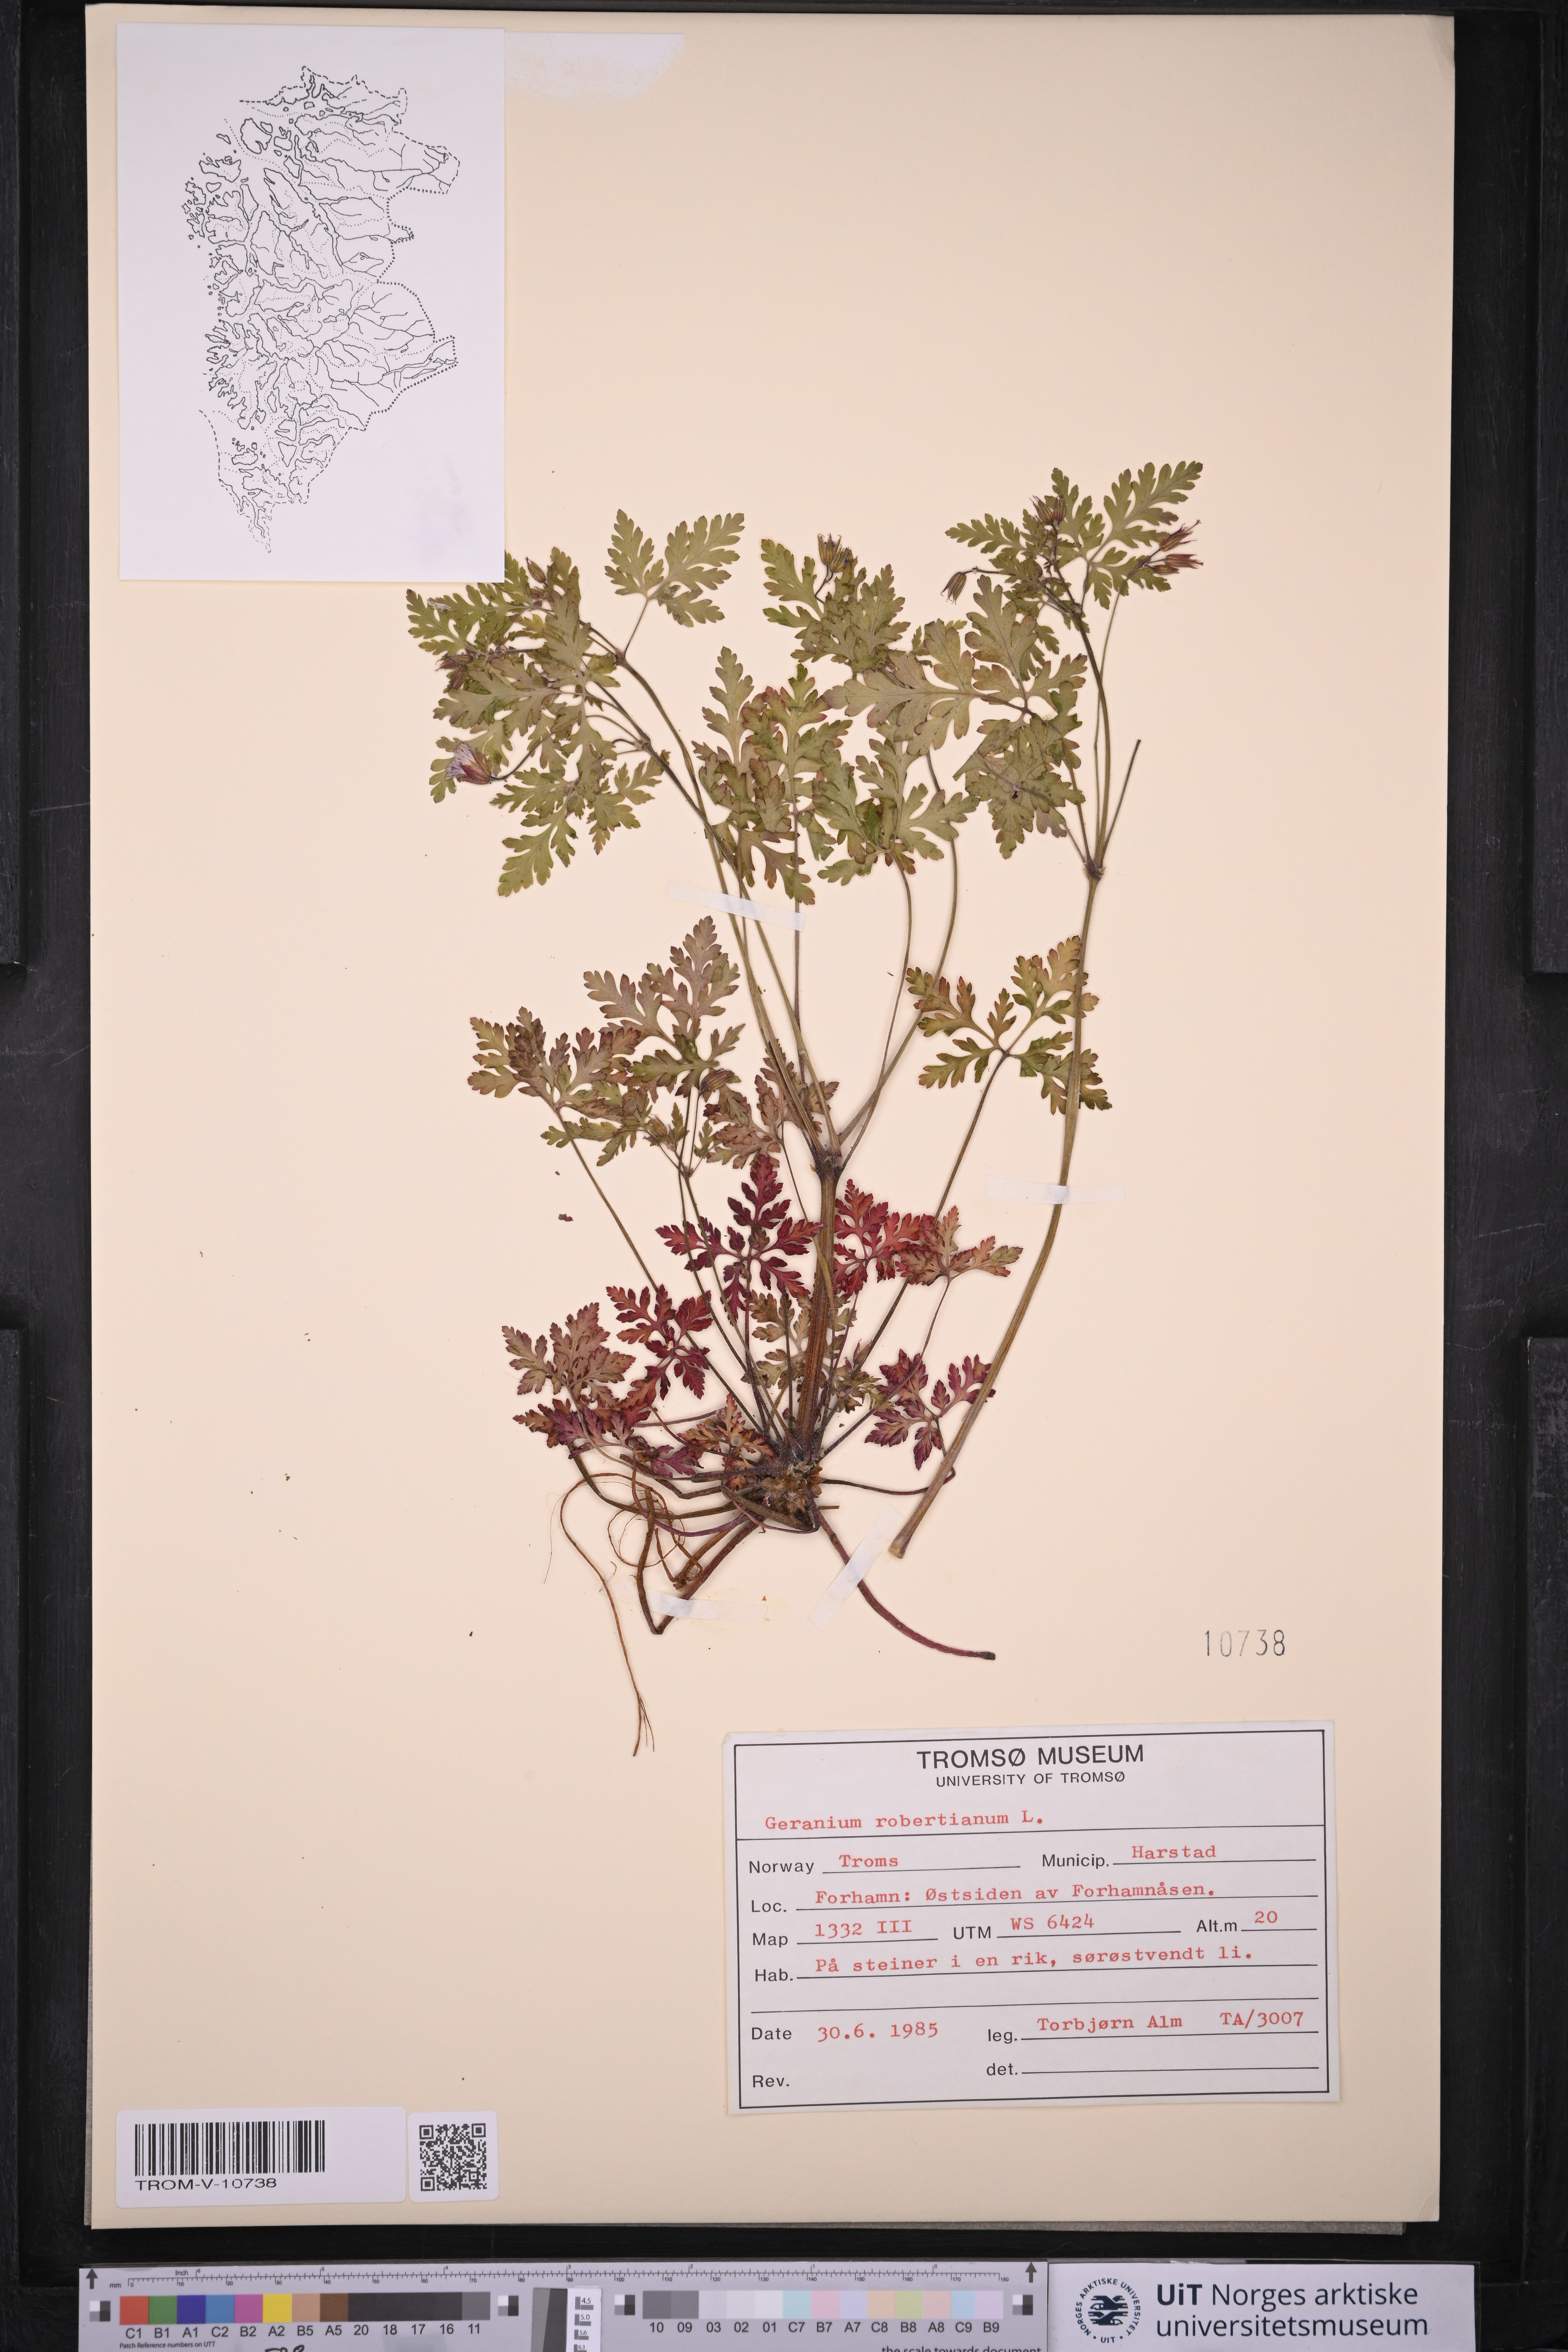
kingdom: Plantae
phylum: Tracheophyta
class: Magnoliopsida
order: Geraniales
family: Geraniaceae
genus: Geranium
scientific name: Geranium robertianum
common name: Herb-robert
